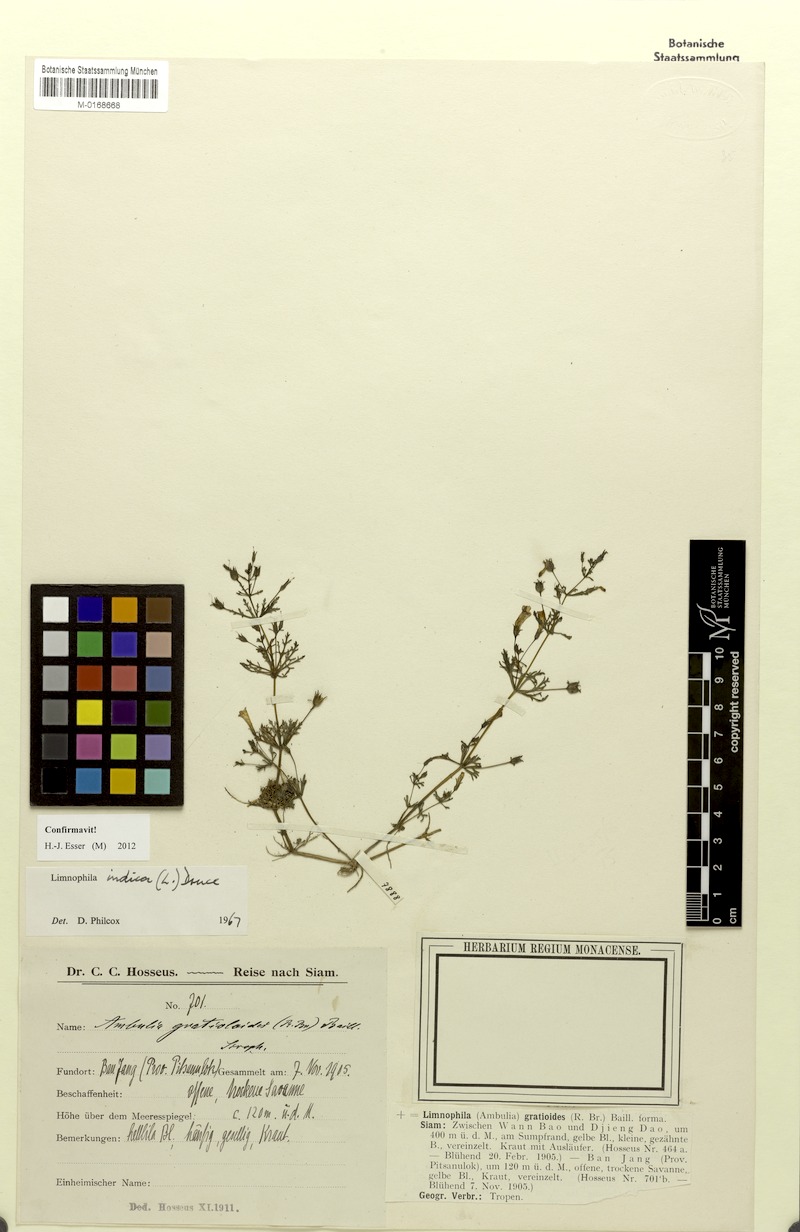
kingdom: Plantae
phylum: Tracheophyta
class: Magnoliopsida
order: Lamiales
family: Plantaginaceae
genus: Limnophila
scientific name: Limnophila indica
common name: Indian marshweed
